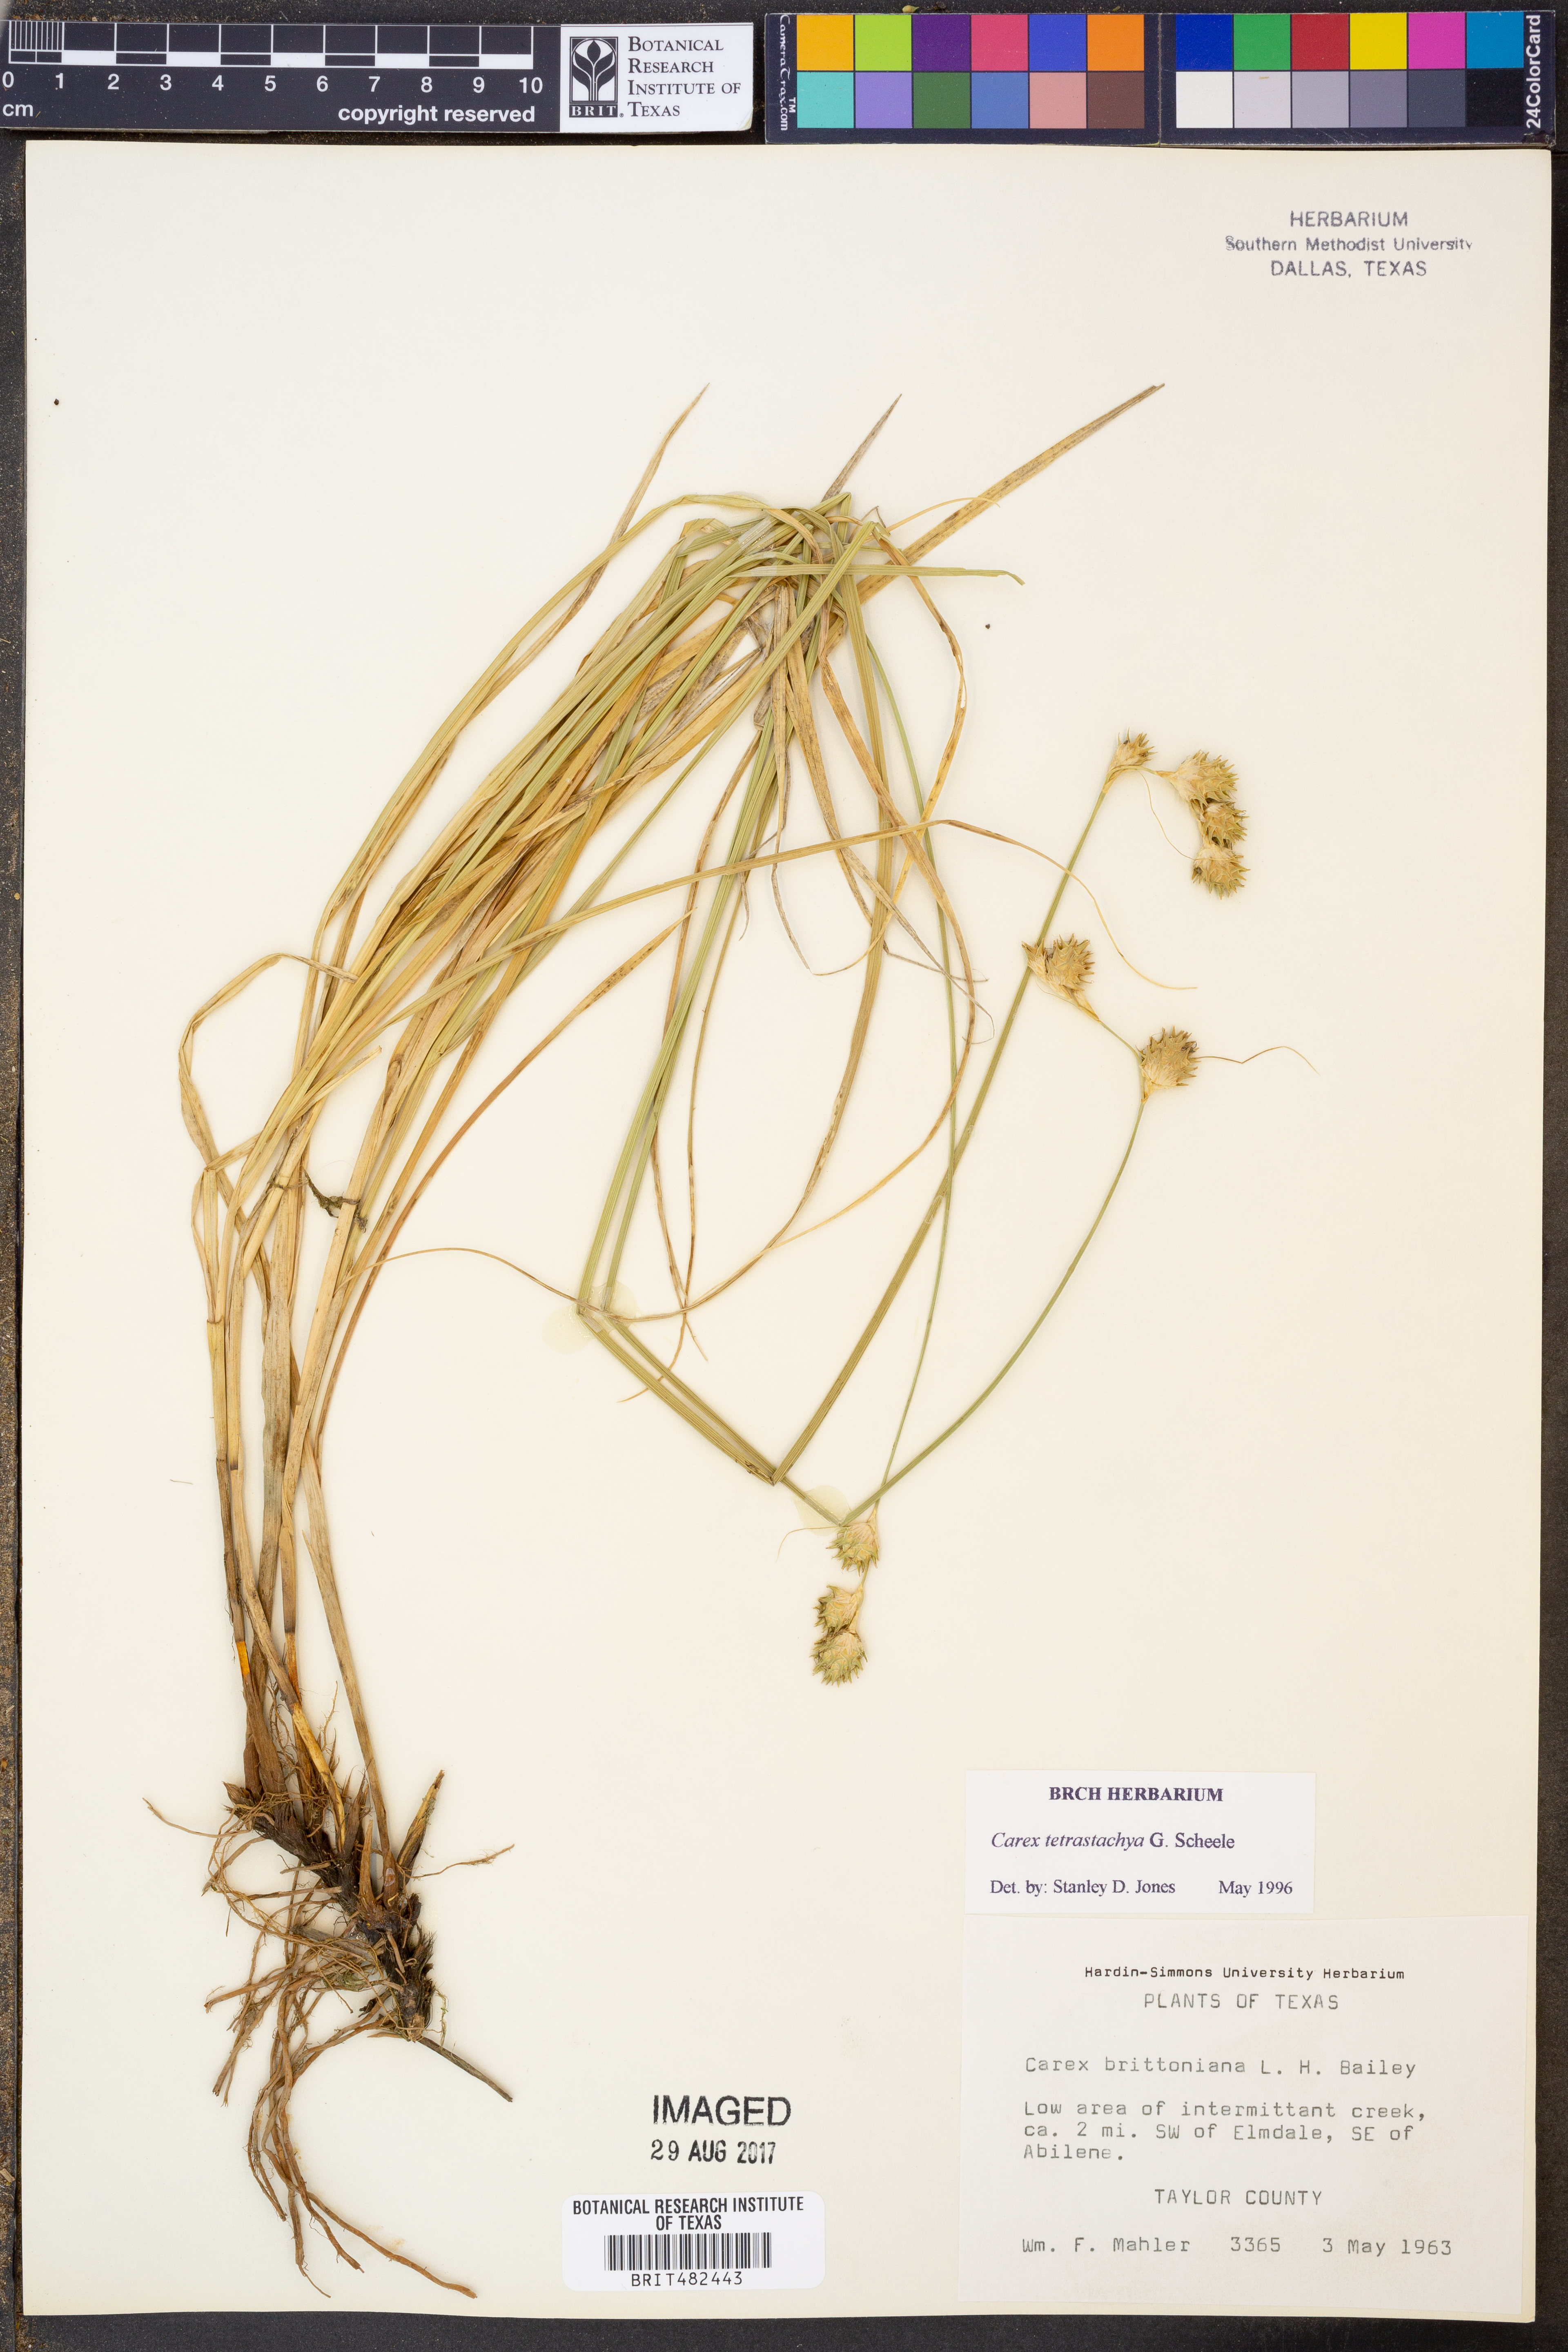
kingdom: Plantae
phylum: Tracheophyta
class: Liliopsida
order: Poales
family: Cyperaceae
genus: Carex
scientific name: Carex tetrastachya
